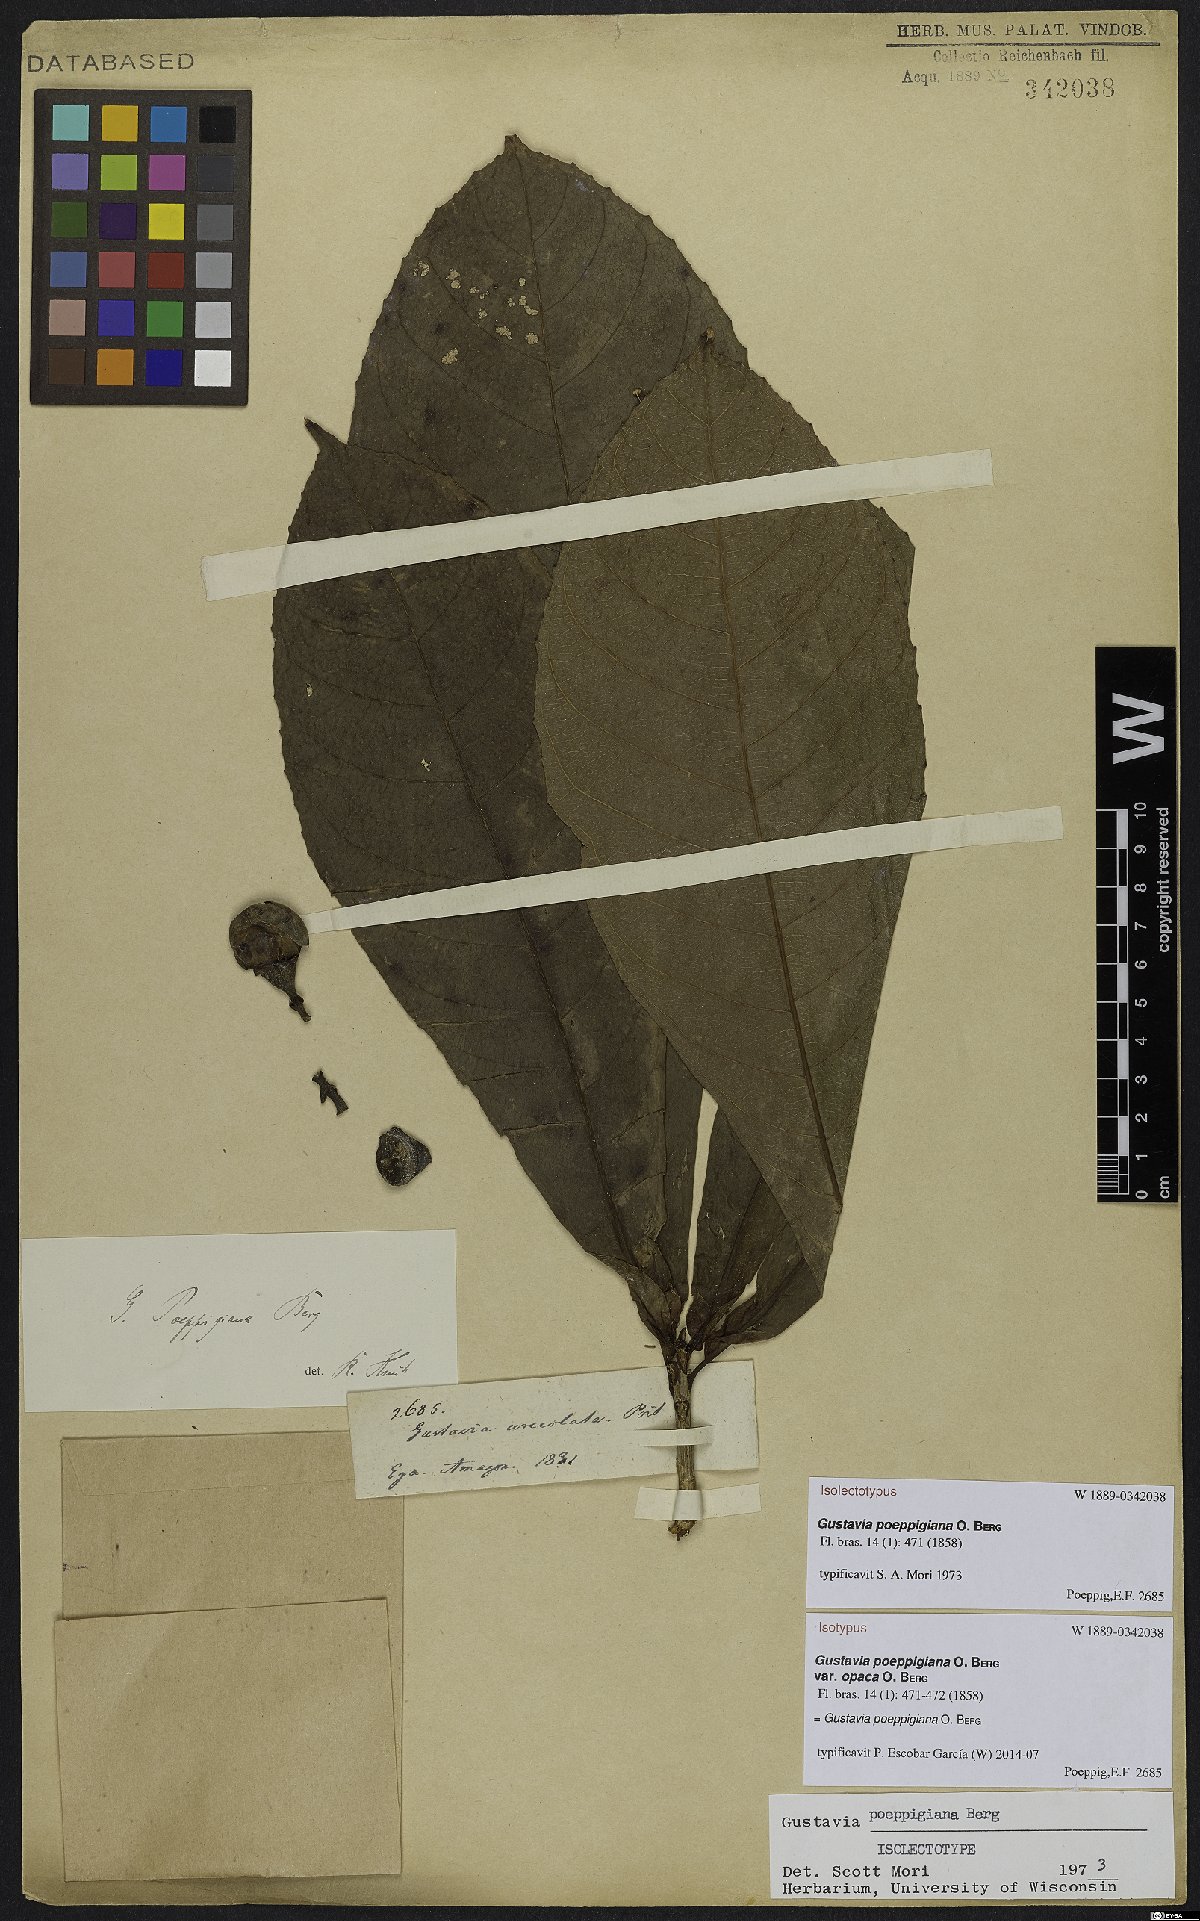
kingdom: Plantae
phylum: Tracheophyta
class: Magnoliopsida
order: Ericales
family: Lecythidaceae
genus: Gustavia
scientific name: Gustavia poeppigiana
